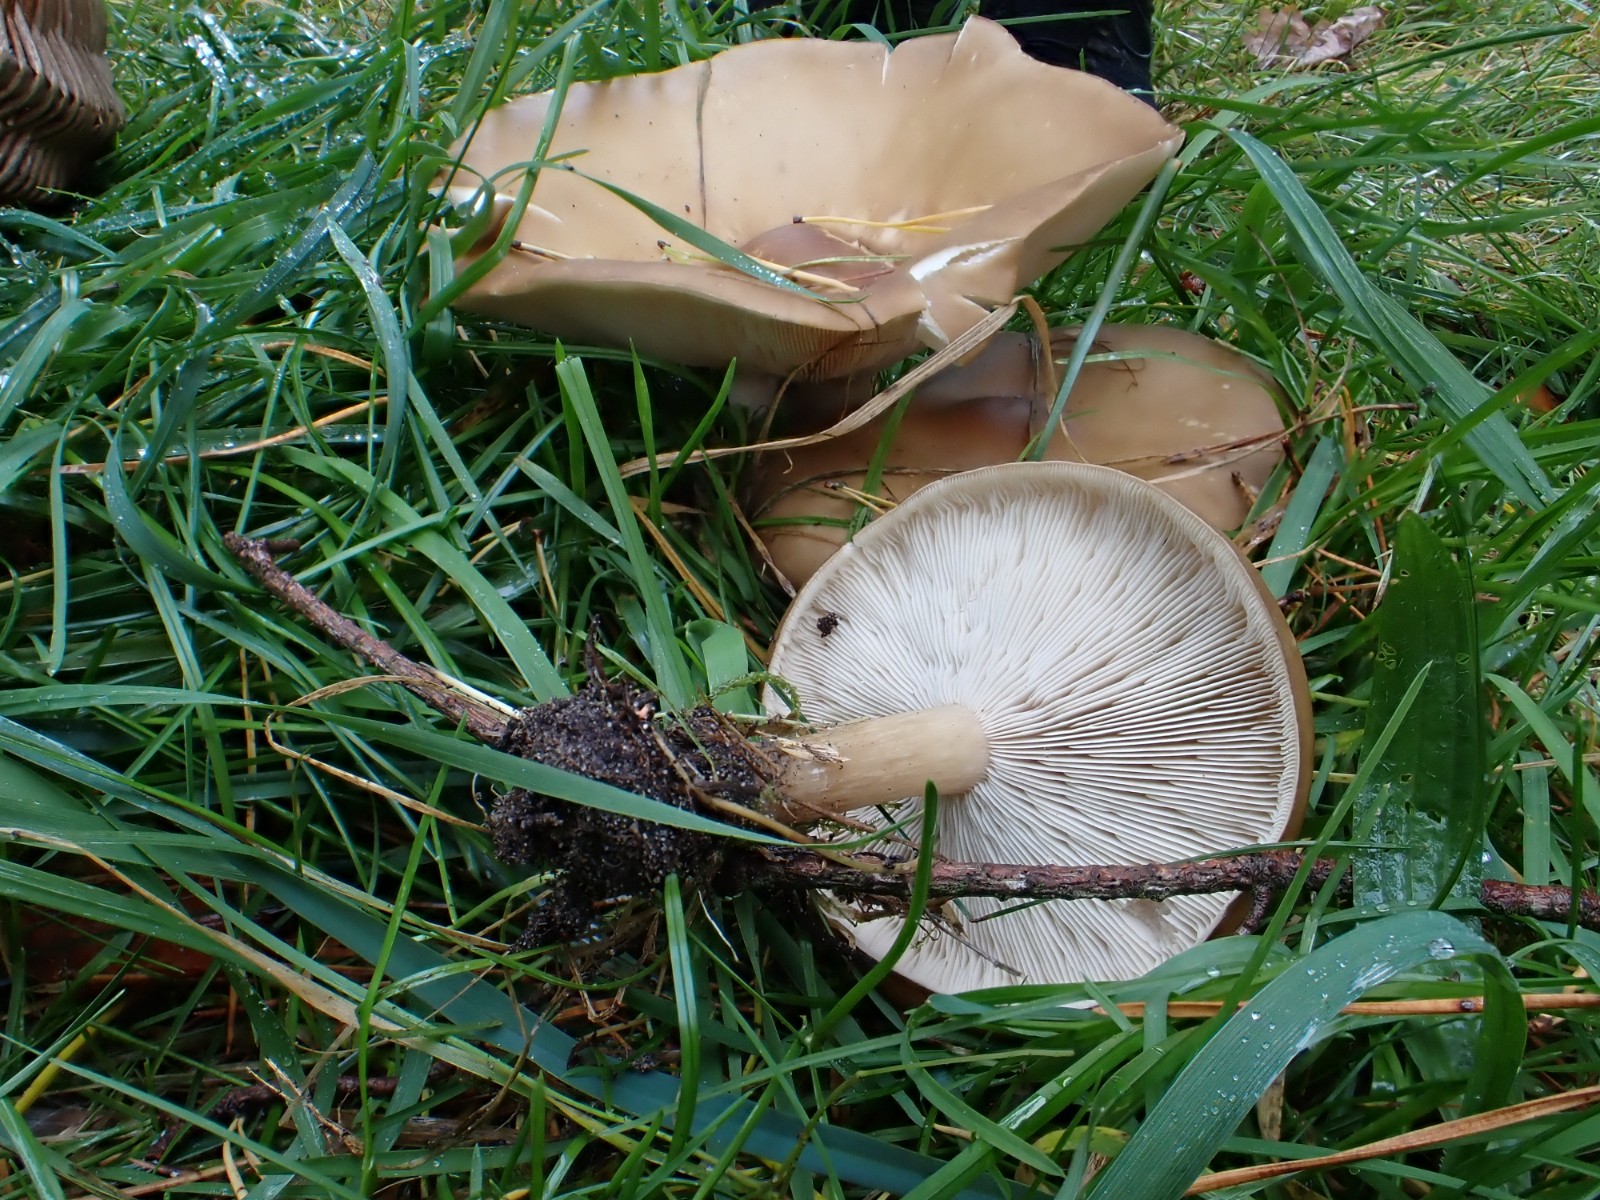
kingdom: Fungi
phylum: Basidiomycota
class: Agaricomycetes
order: Agaricales
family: Tricholomataceae
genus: Melanoleuca
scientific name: Melanoleuca grammopodia
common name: stribestokket munkehat
